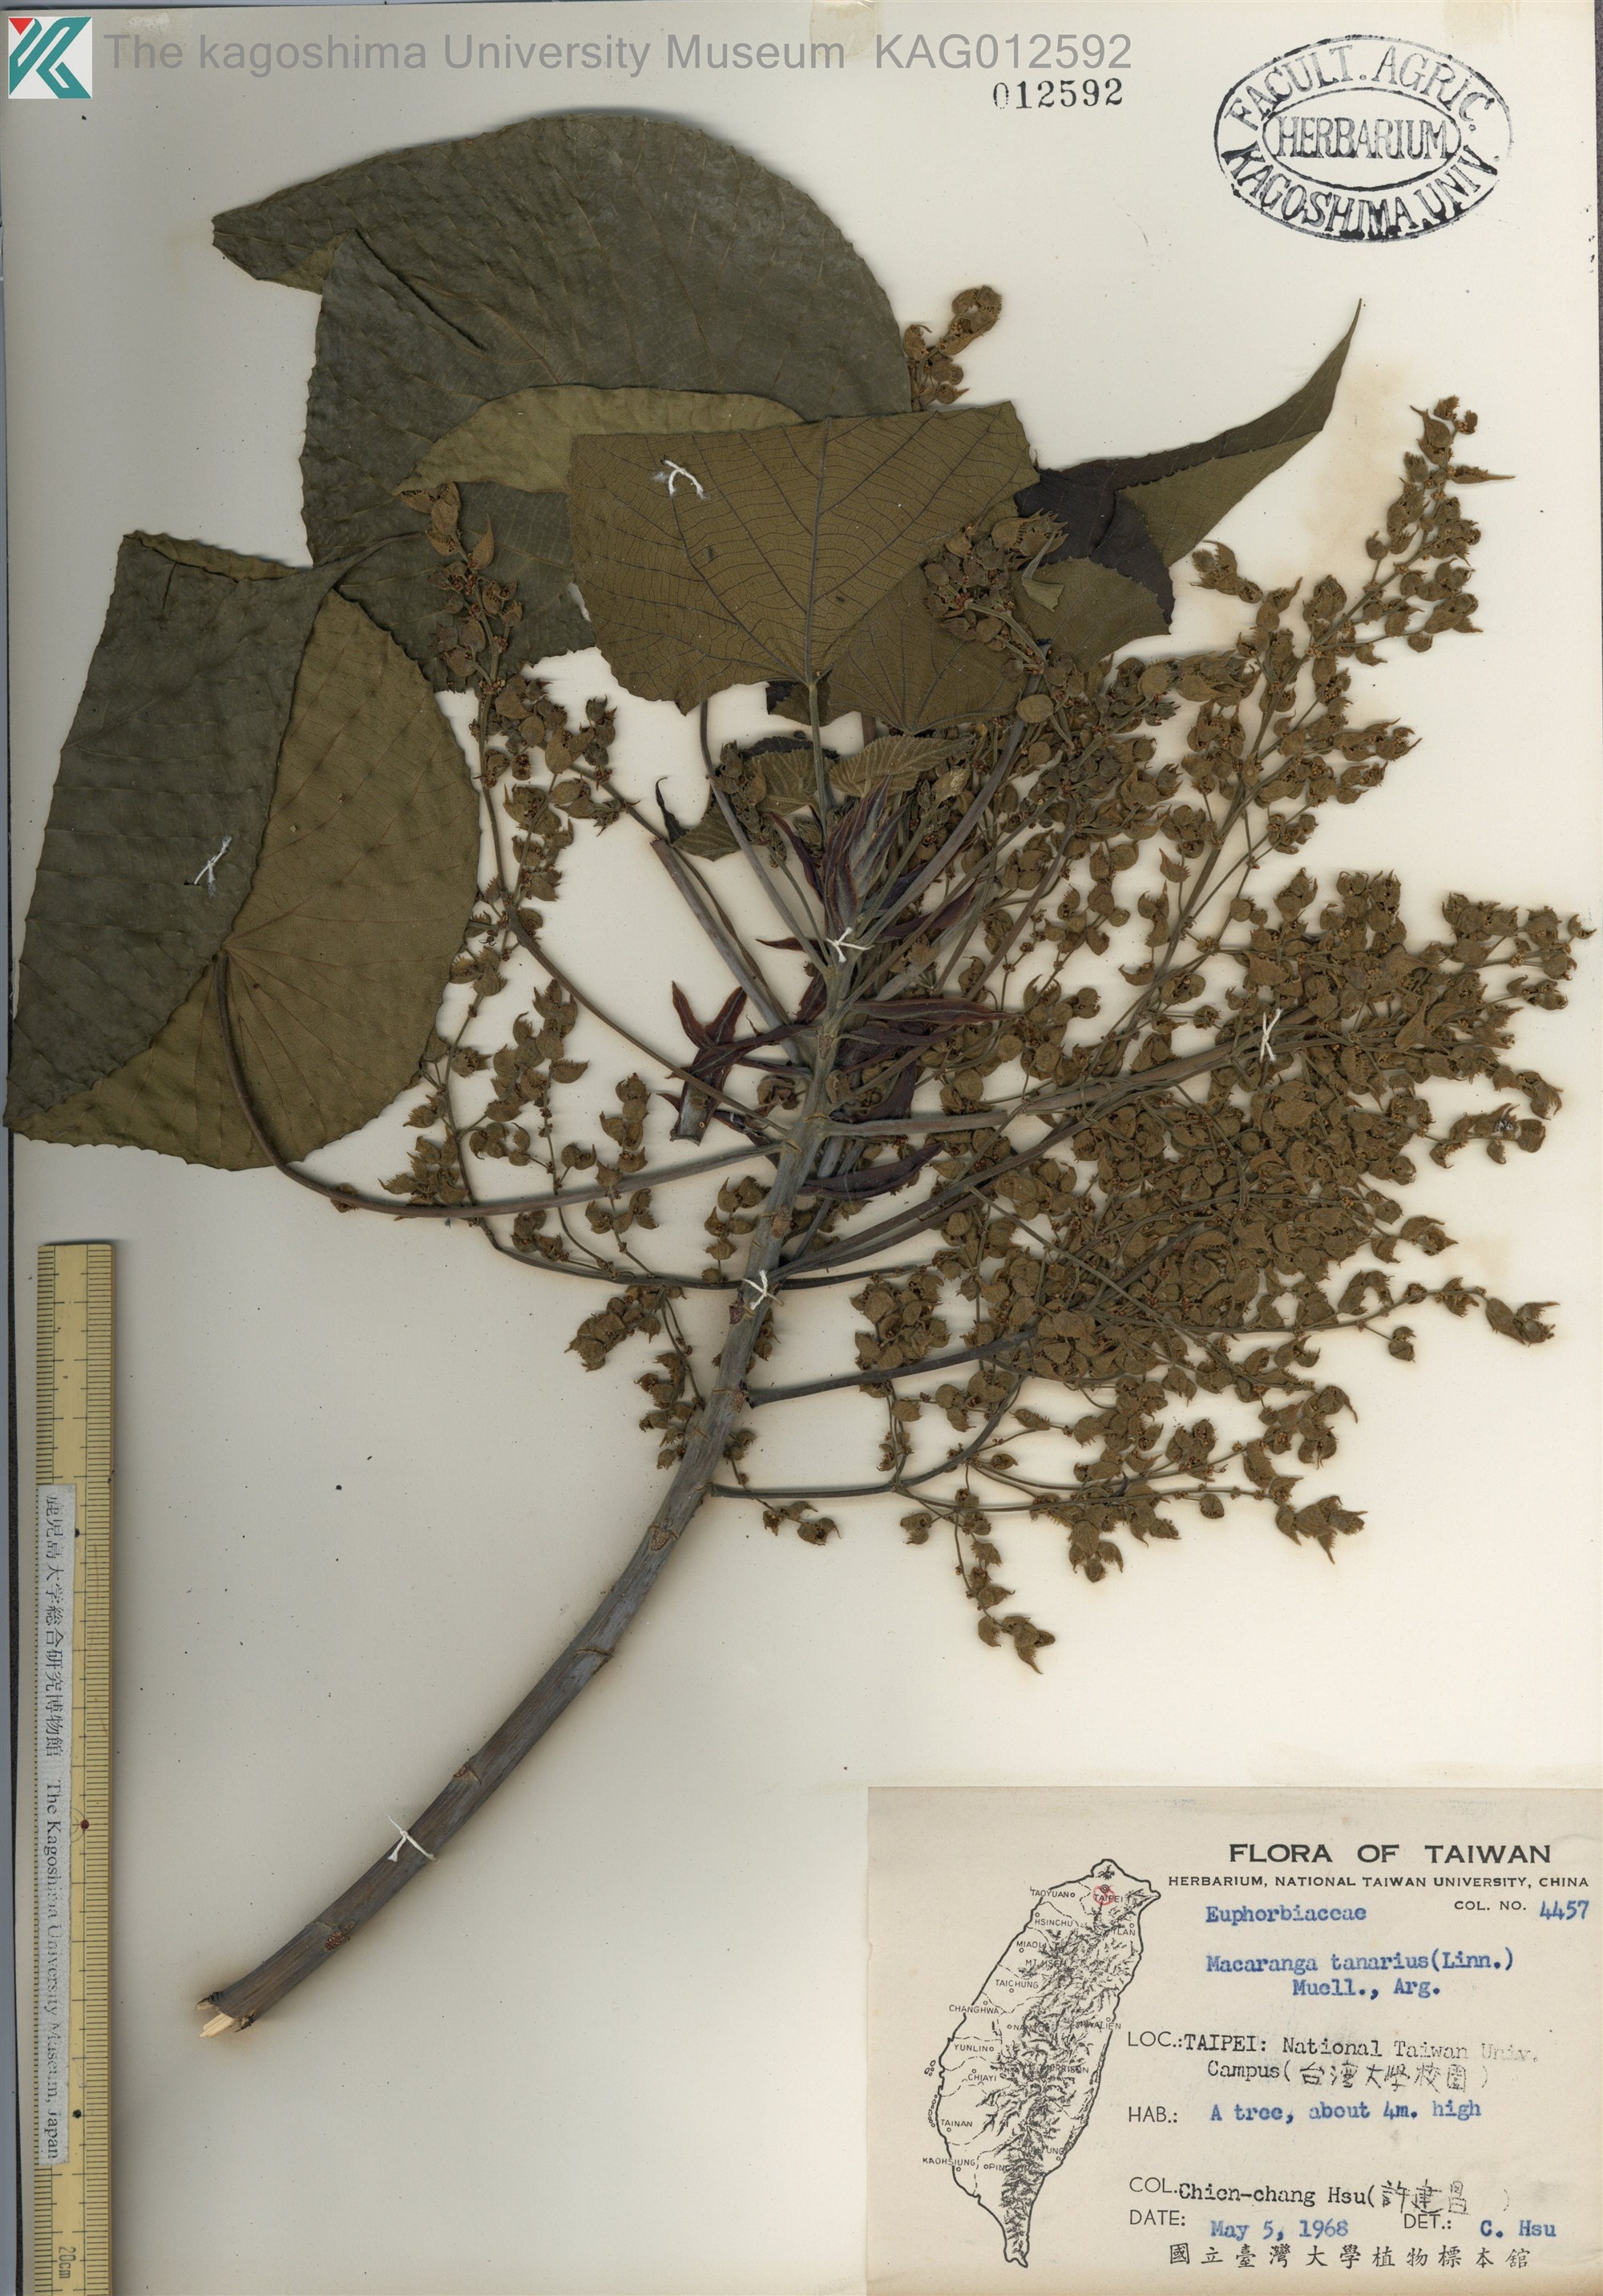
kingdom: Plantae
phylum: Tracheophyta
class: Magnoliopsida
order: Malpighiales
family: Euphorbiaceae
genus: Macaranga
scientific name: Macaranga tanarius
